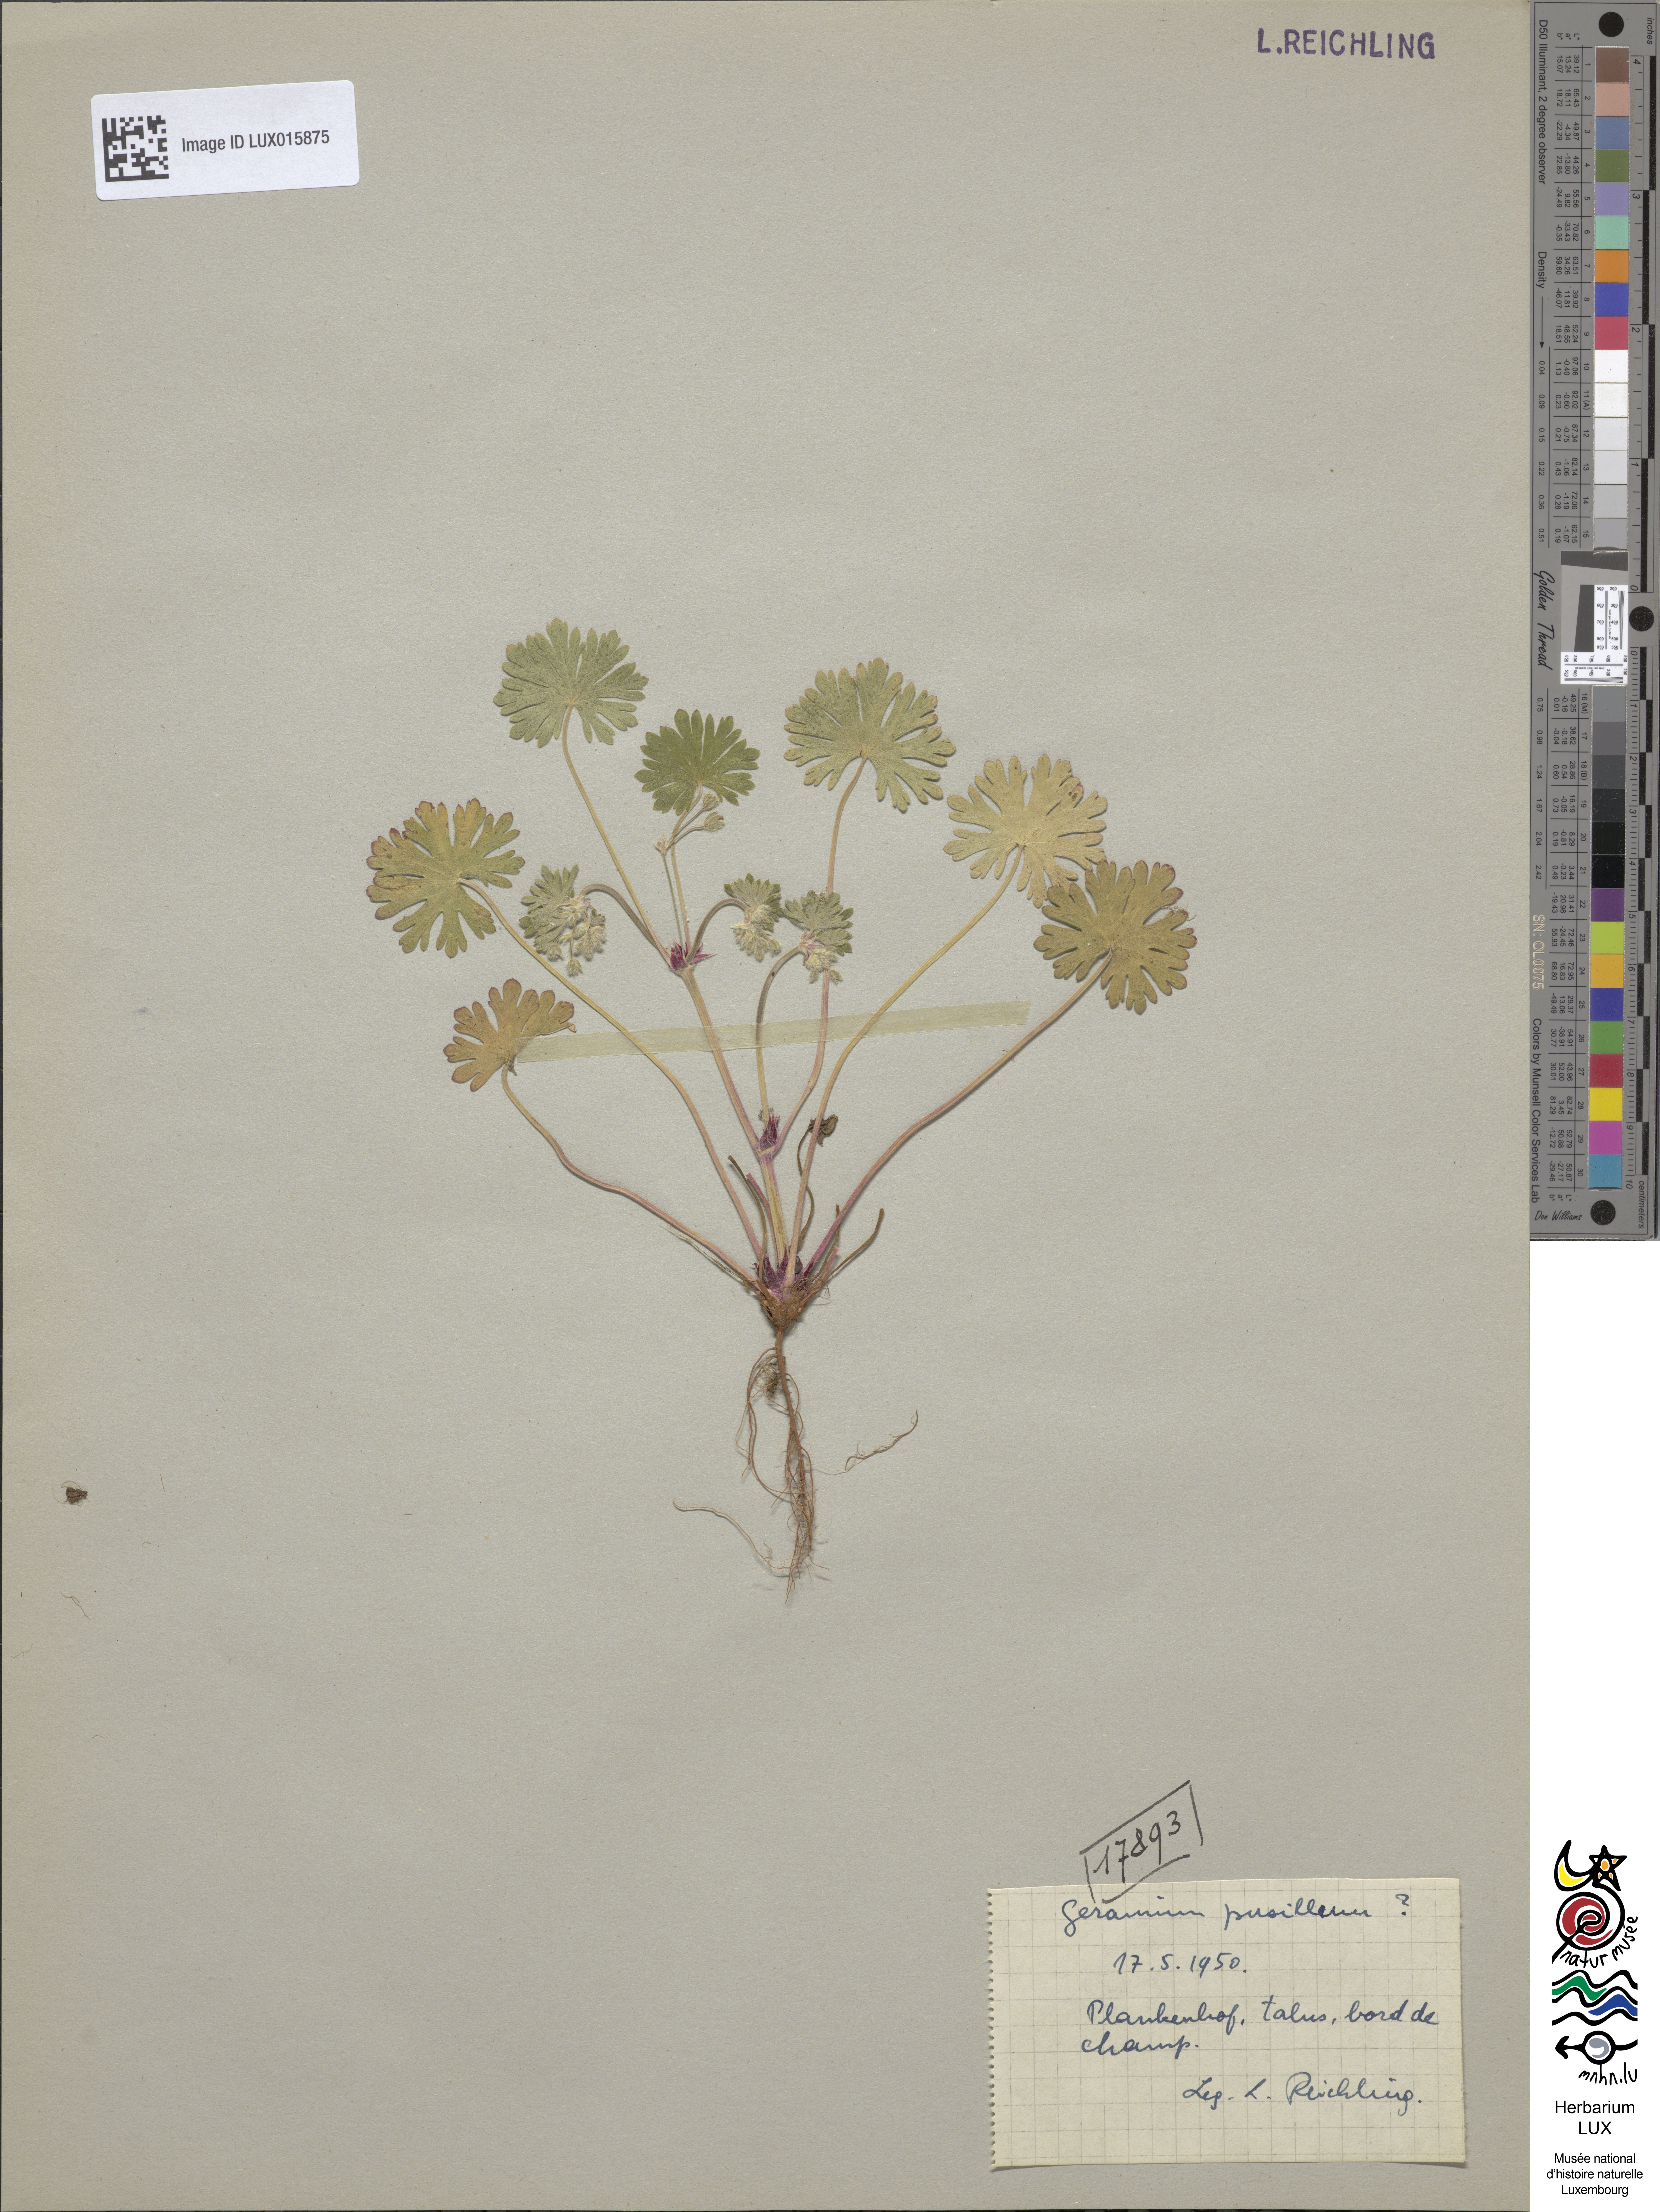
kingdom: Plantae
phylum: Tracheophyta
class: Magnoliopsida
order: Geraniales
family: Geraniaceae
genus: Geranium
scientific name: Geranium pusillum
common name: Small geranium
